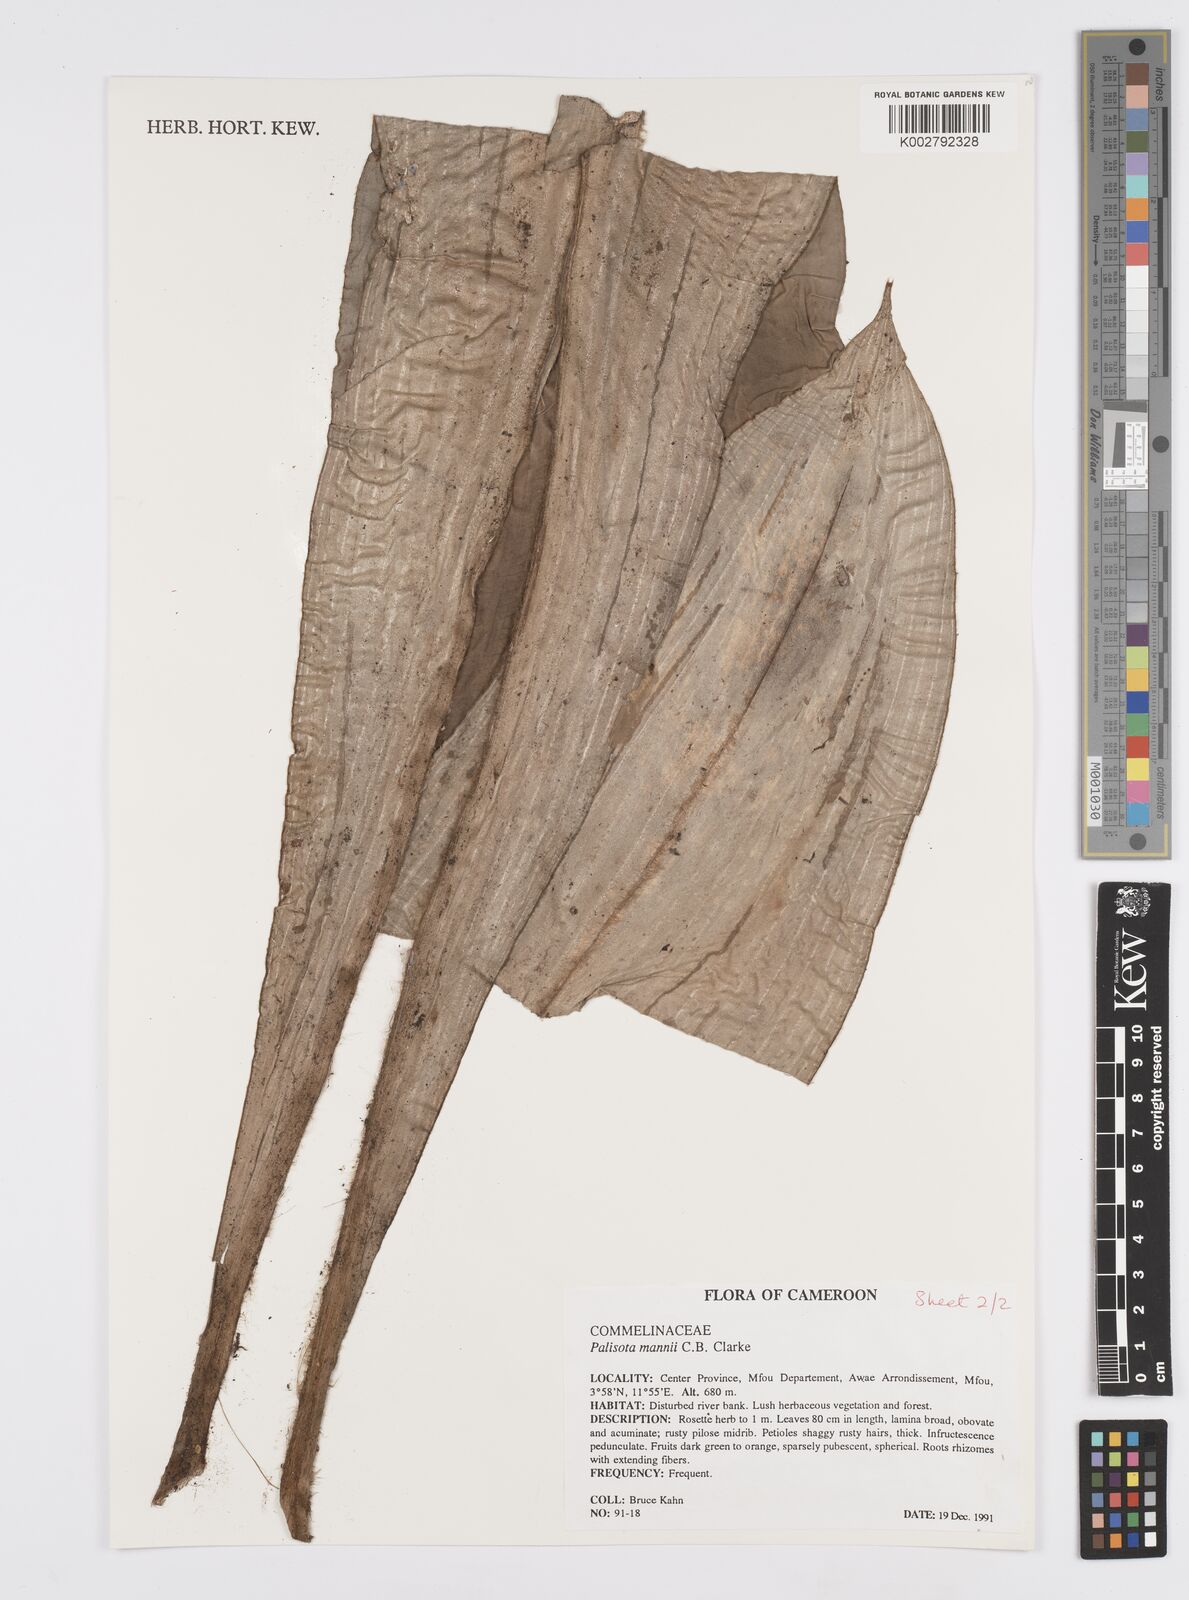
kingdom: Plantae
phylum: Tracheophyta
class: Liliopsida
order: Commelinales
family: Commelinaceae
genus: Palisota
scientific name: Palisota mannii
